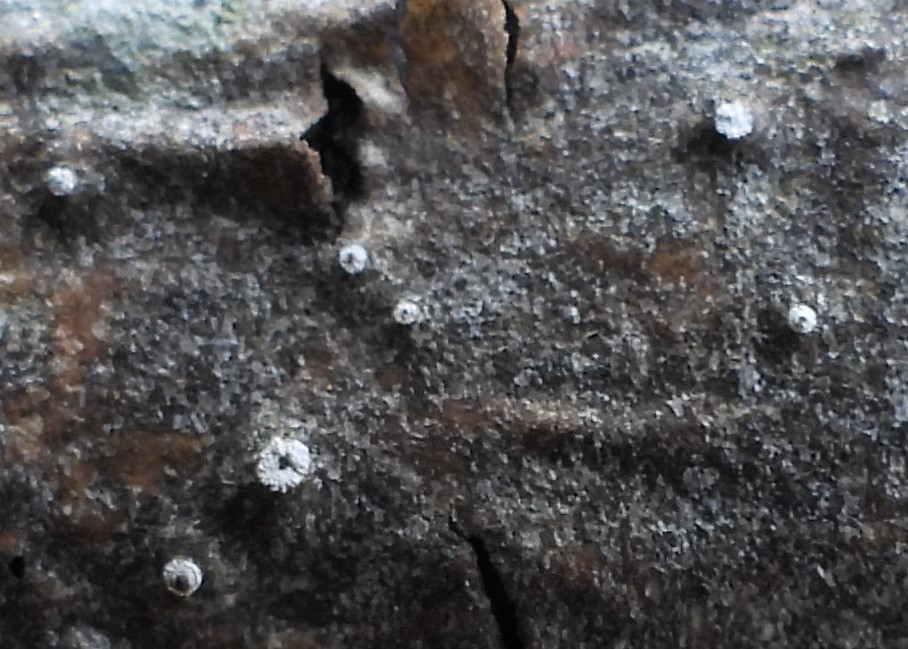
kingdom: Fungi
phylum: Ascomycota
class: Sordariomycetes
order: Diaporthales
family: Valsaceae
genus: Cytospora
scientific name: Cytospora nivea
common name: hvidskivet kulknippe
